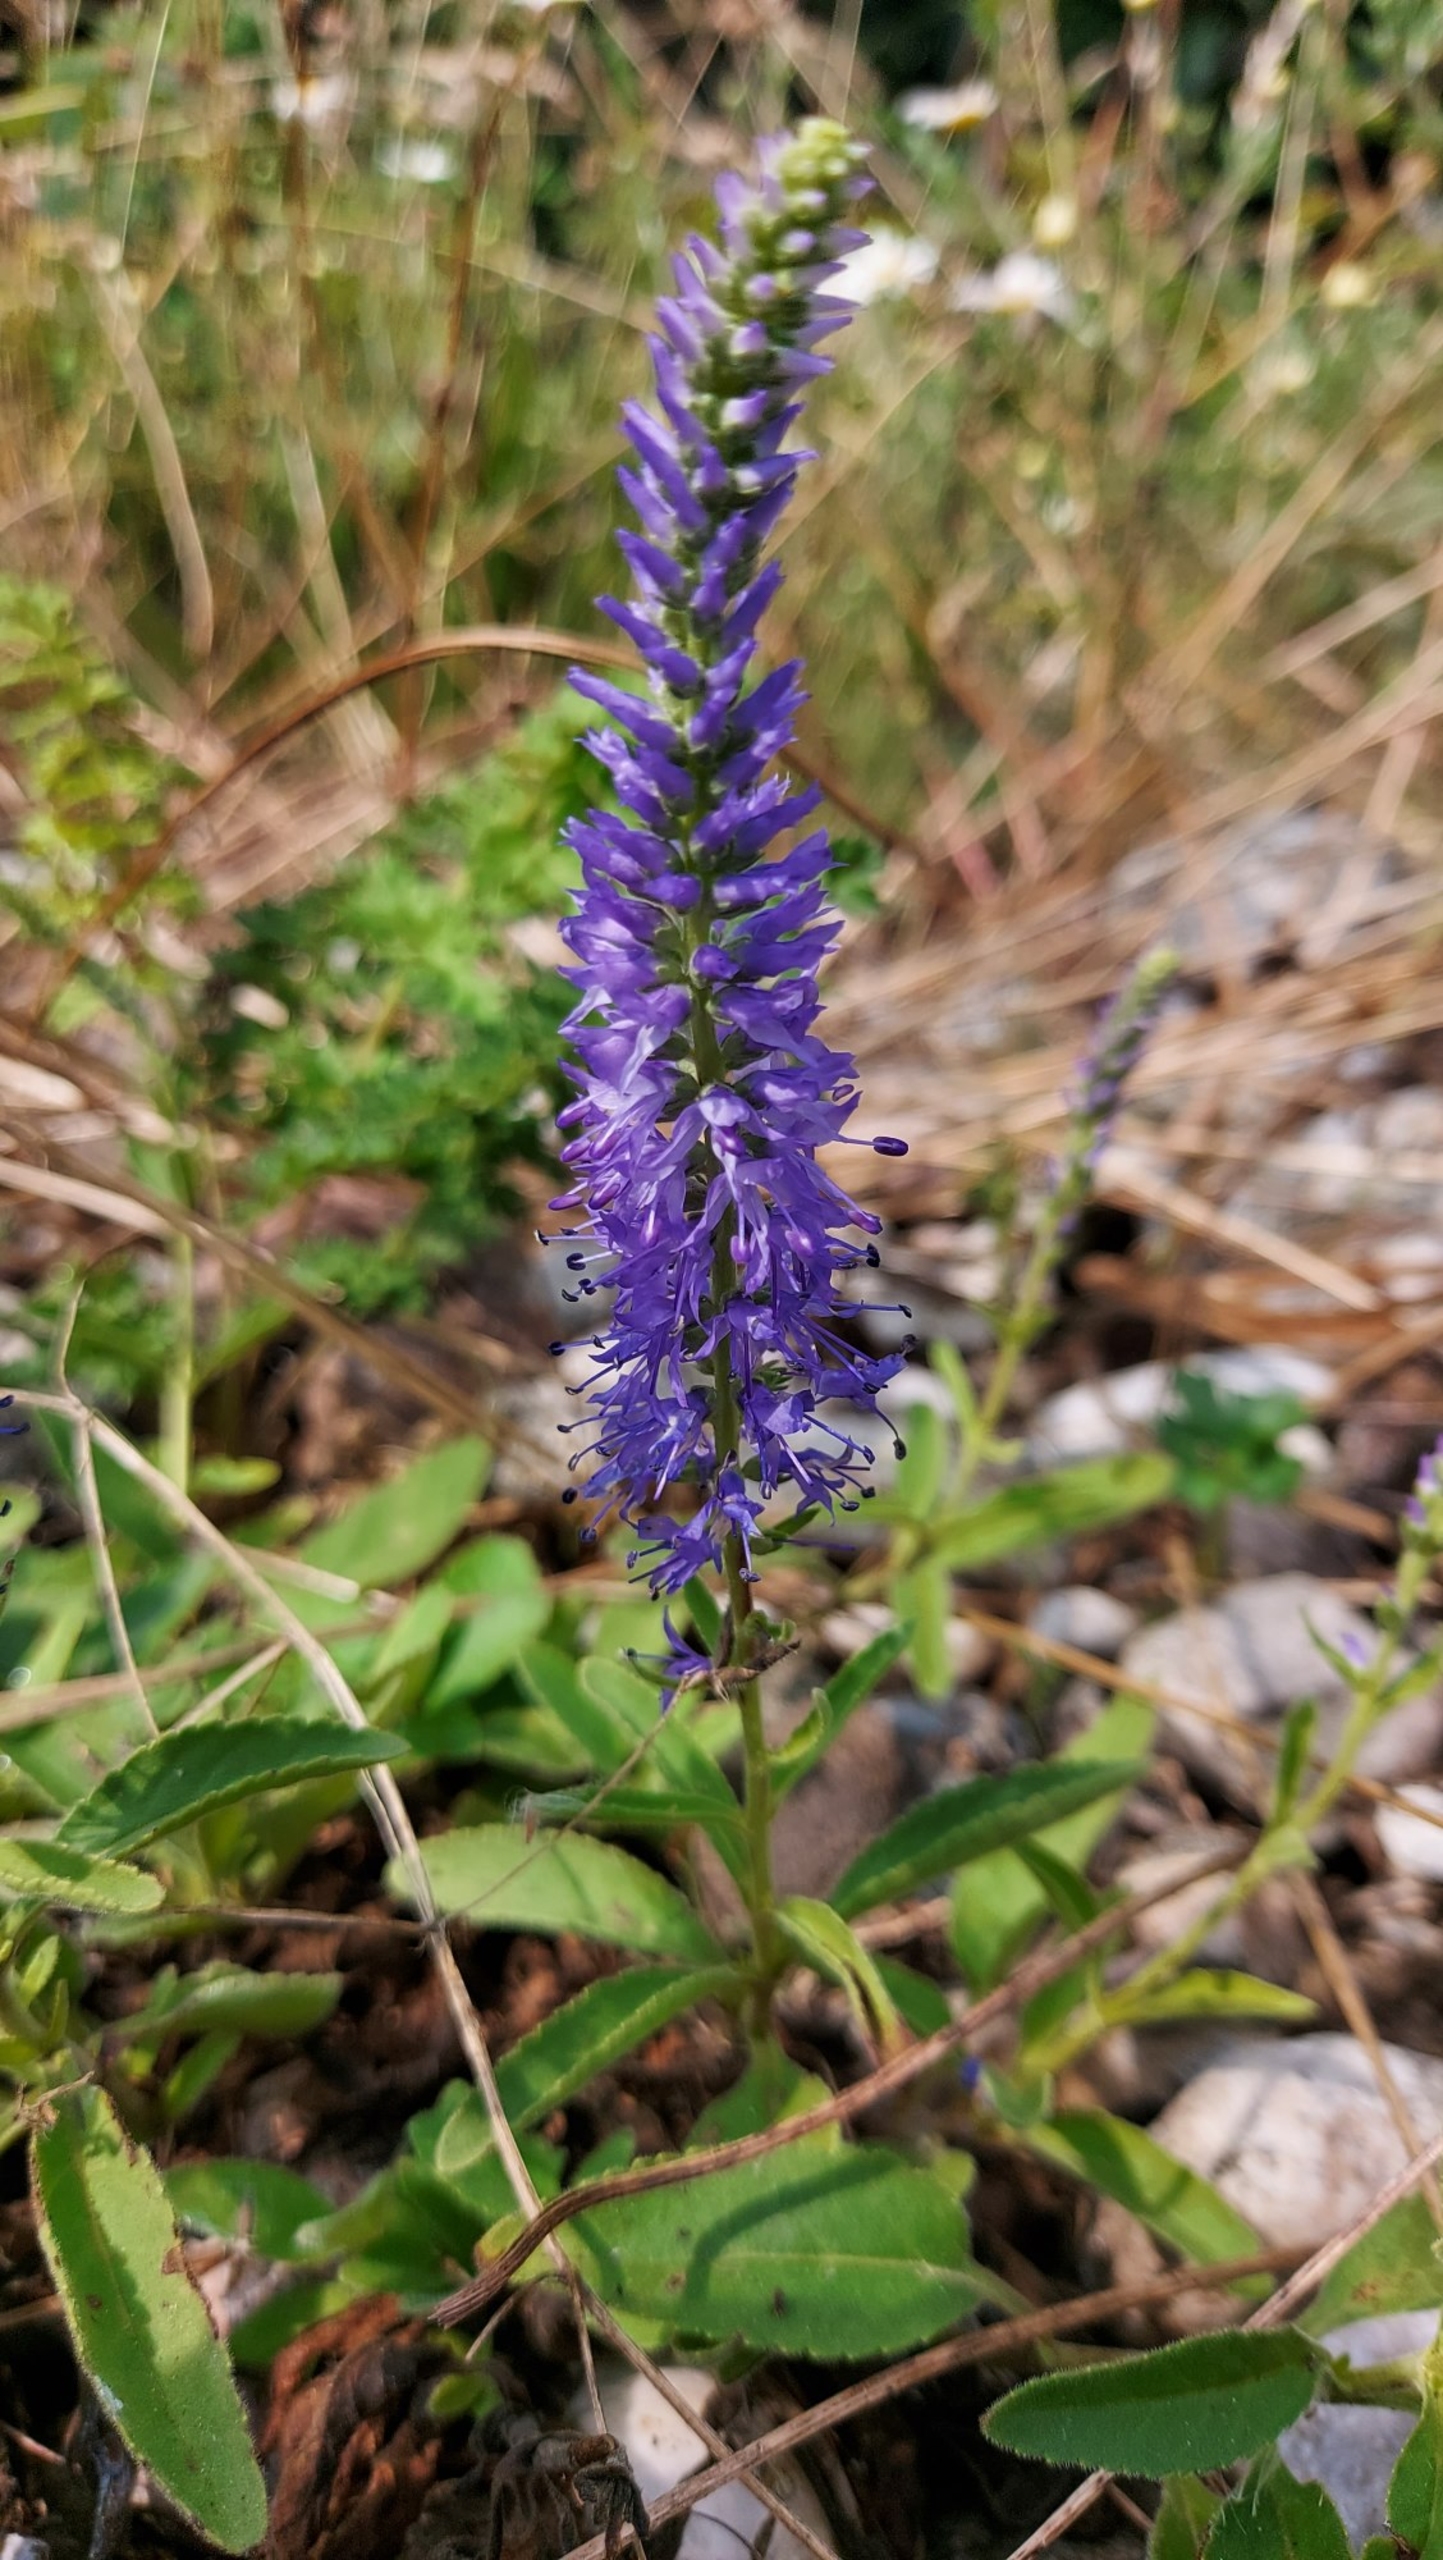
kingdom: Plantae
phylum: Tracheophyta
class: Magnoliopsida
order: Lamiales
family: Plantaginaceae
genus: Veronica
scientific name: Veronica spicata
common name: Aks-ærenpris
